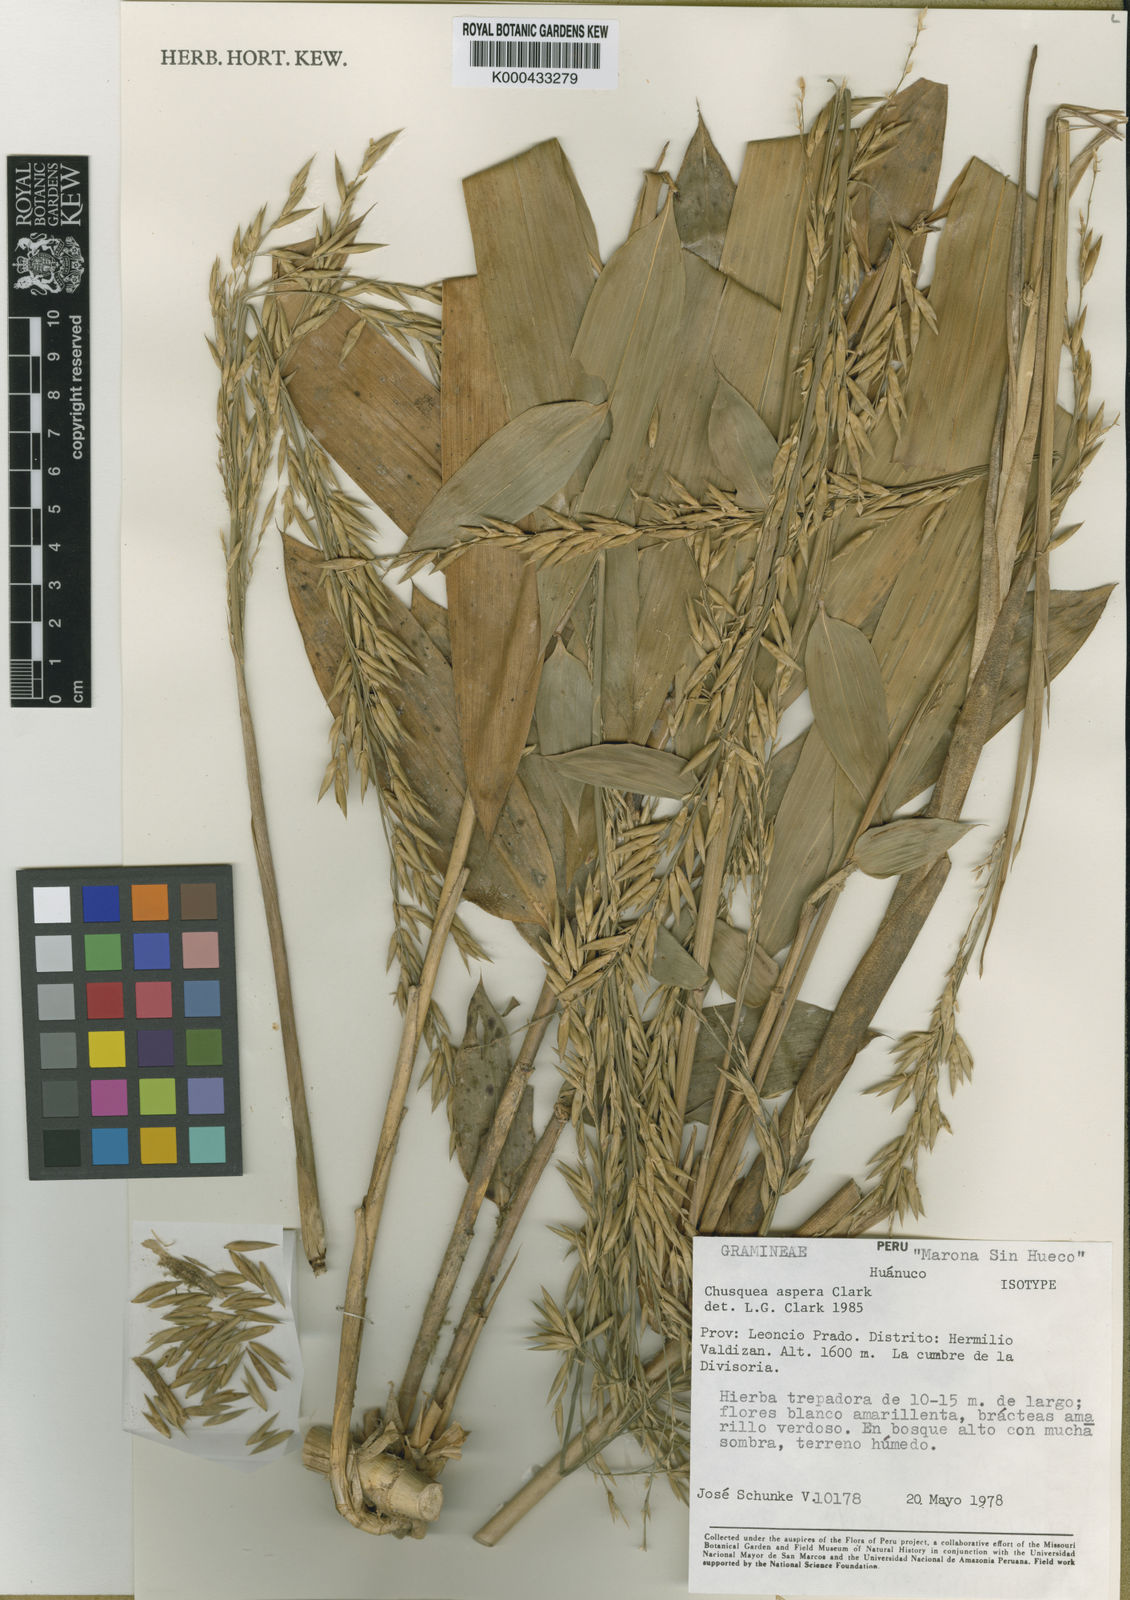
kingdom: Plantae
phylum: Tracheophyta
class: Liliopsida
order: Poales
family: Poaceae
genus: Chusquea
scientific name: Chusquea aspera
